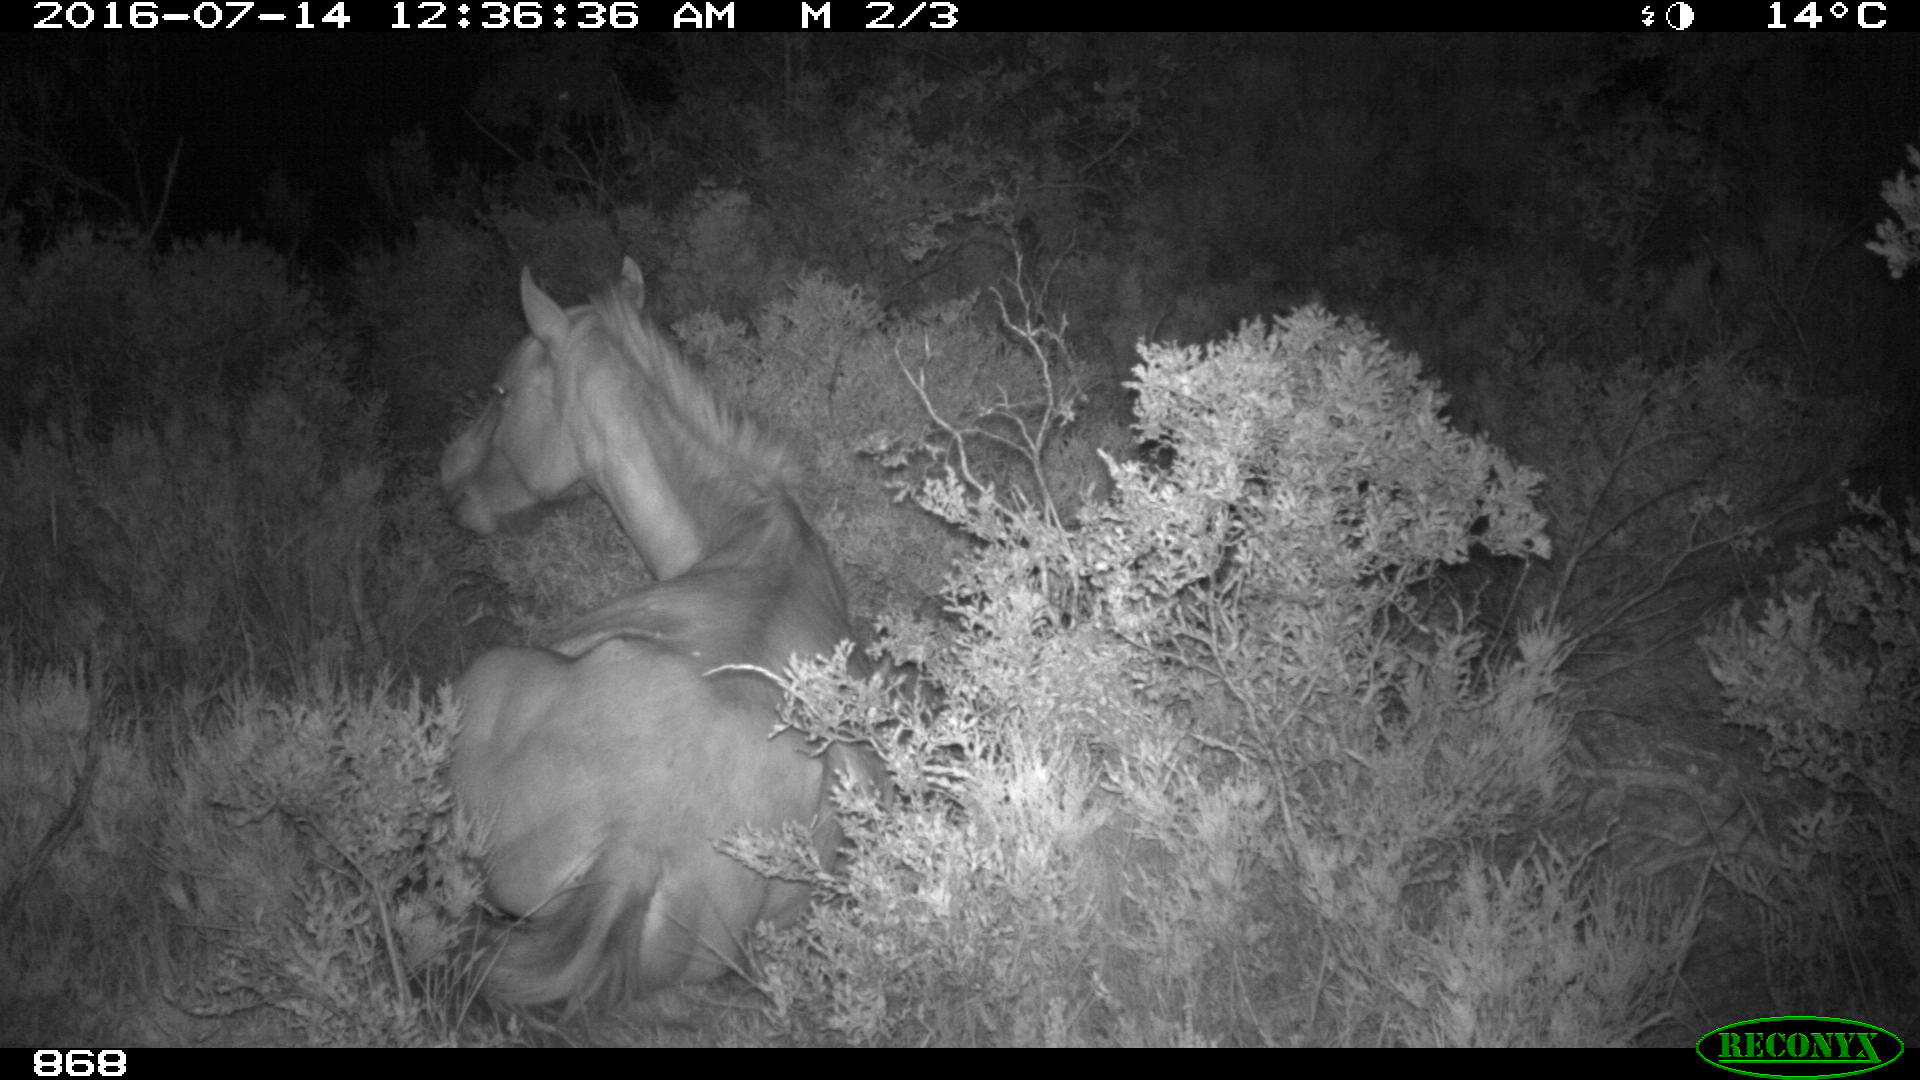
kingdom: Animalia
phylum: Chordata
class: Mammalia
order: Perissodactyla
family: Equidae
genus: Equus
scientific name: Equus caballus
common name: Horse
